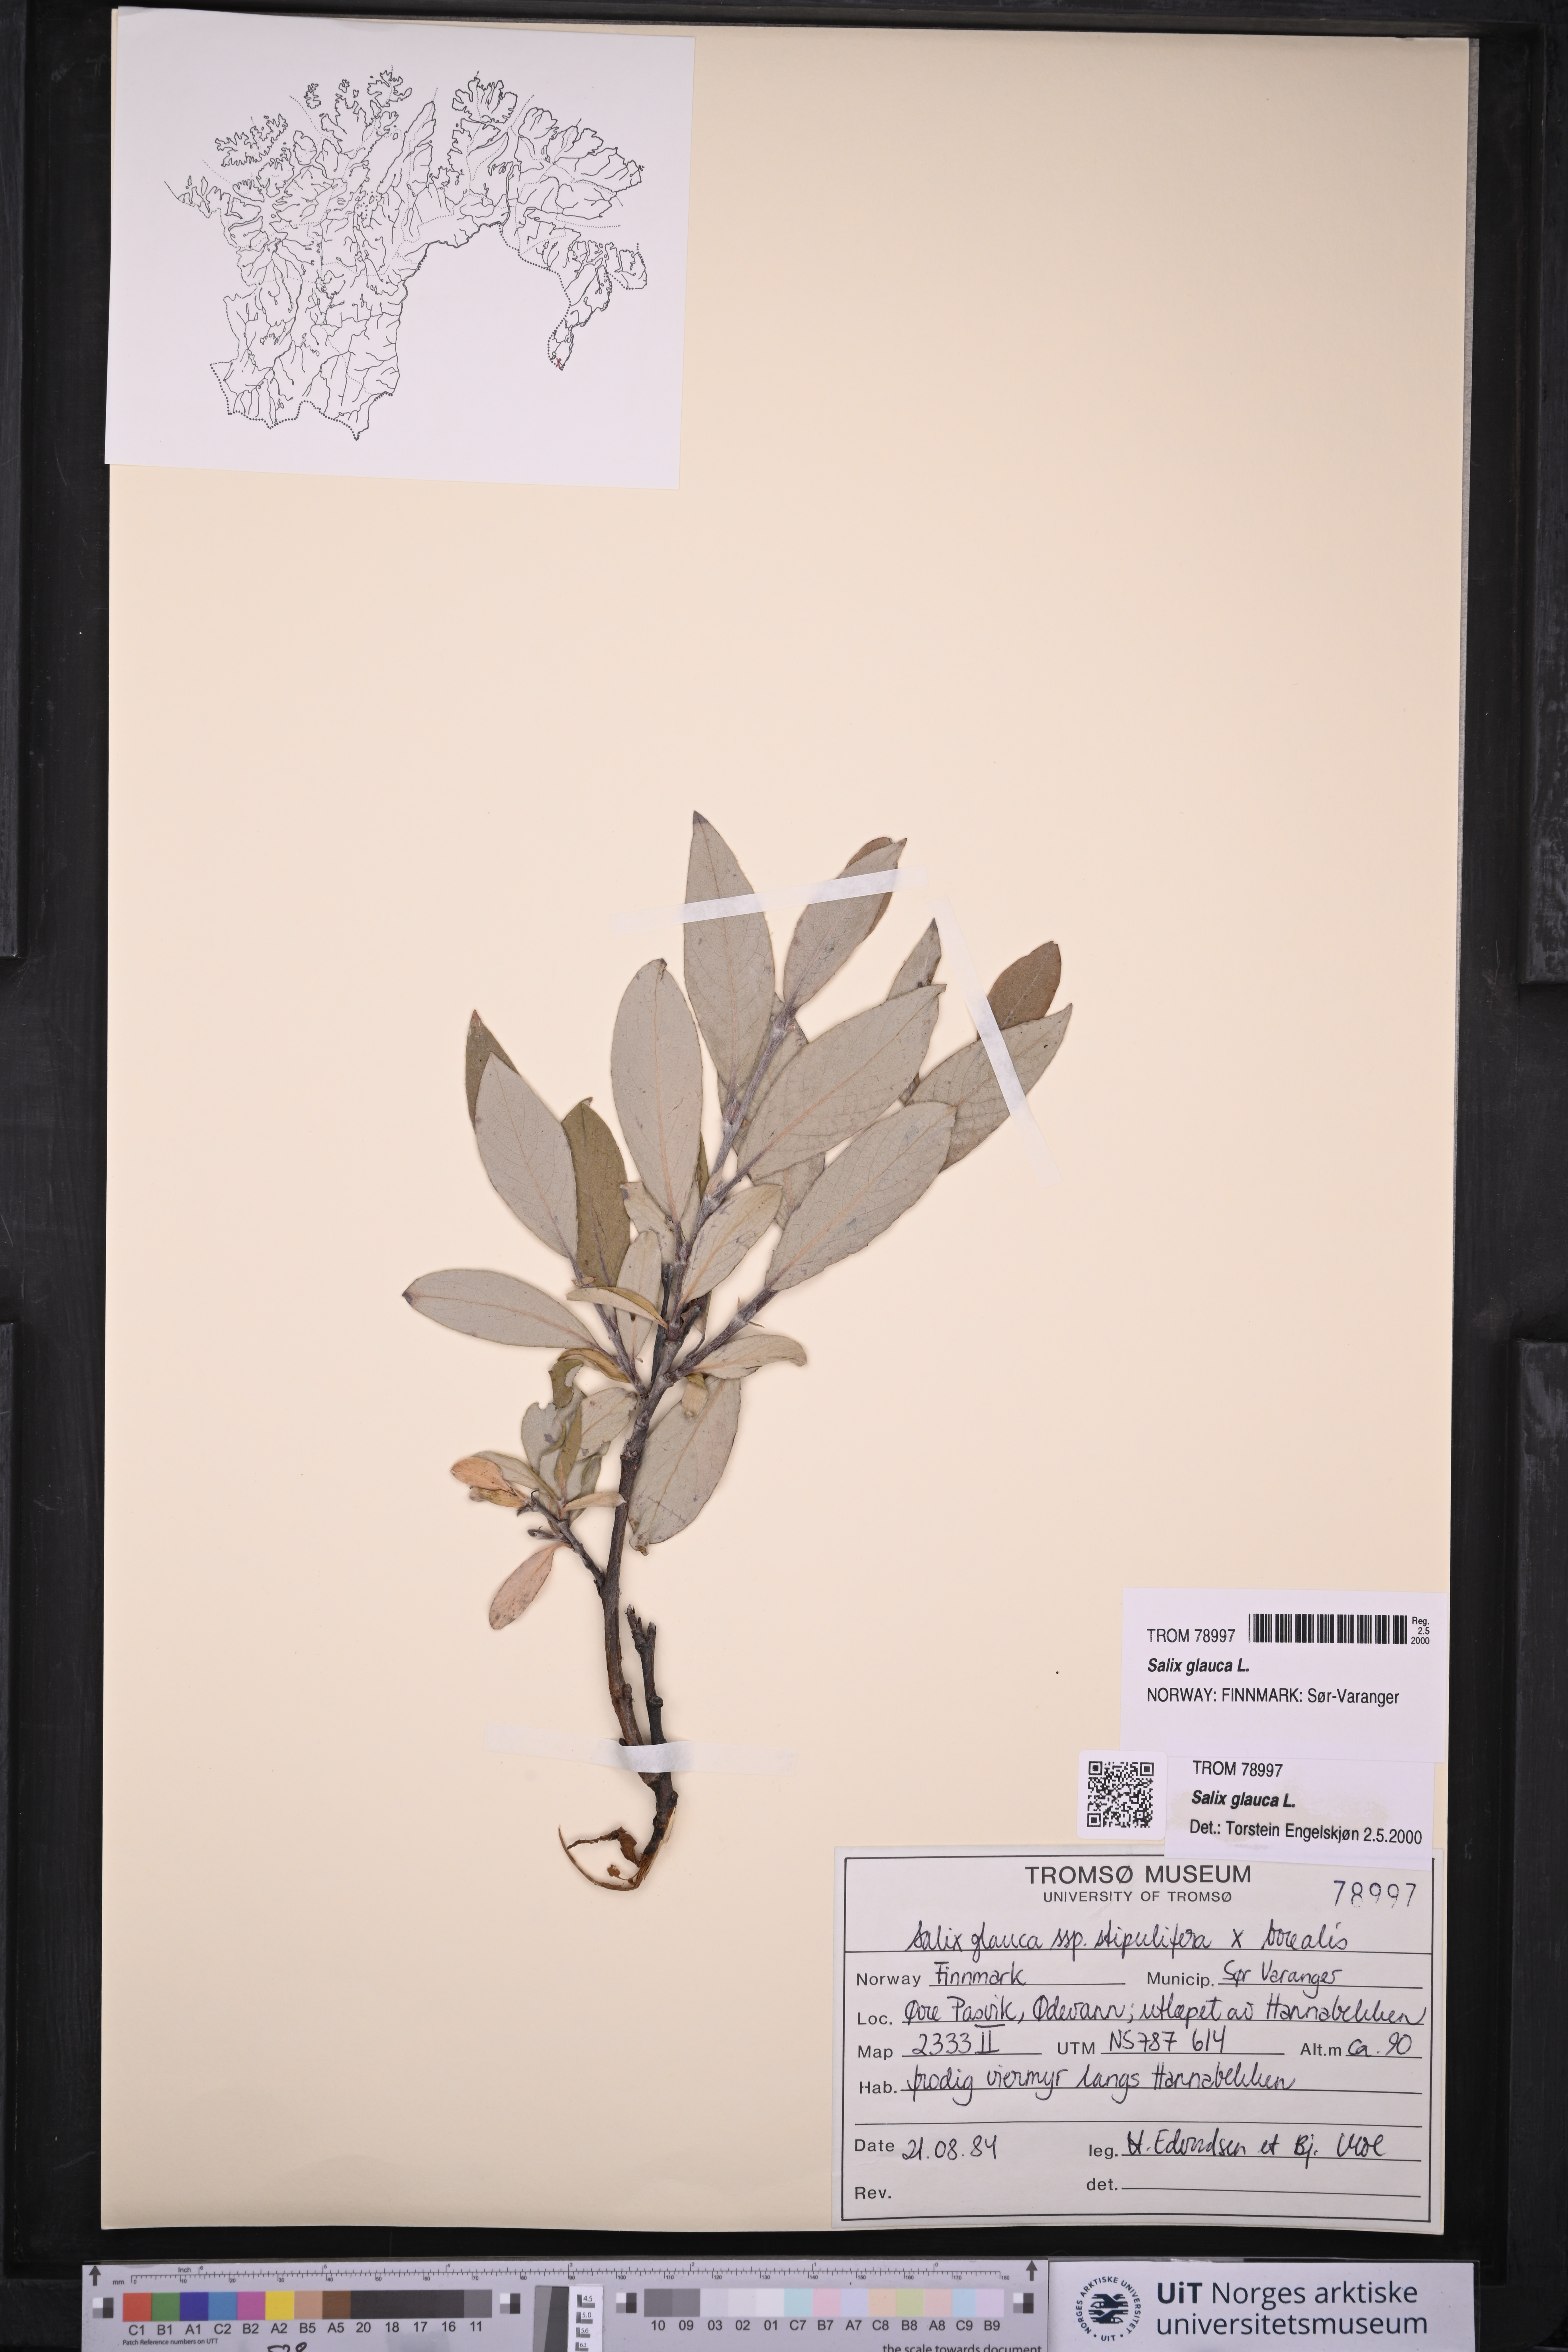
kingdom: Plantae
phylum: Tracheophyta
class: Magnoliopsida
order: Malpighiales
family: Salicaceae
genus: Salix
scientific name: Salix glauca
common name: Glaucous willow
